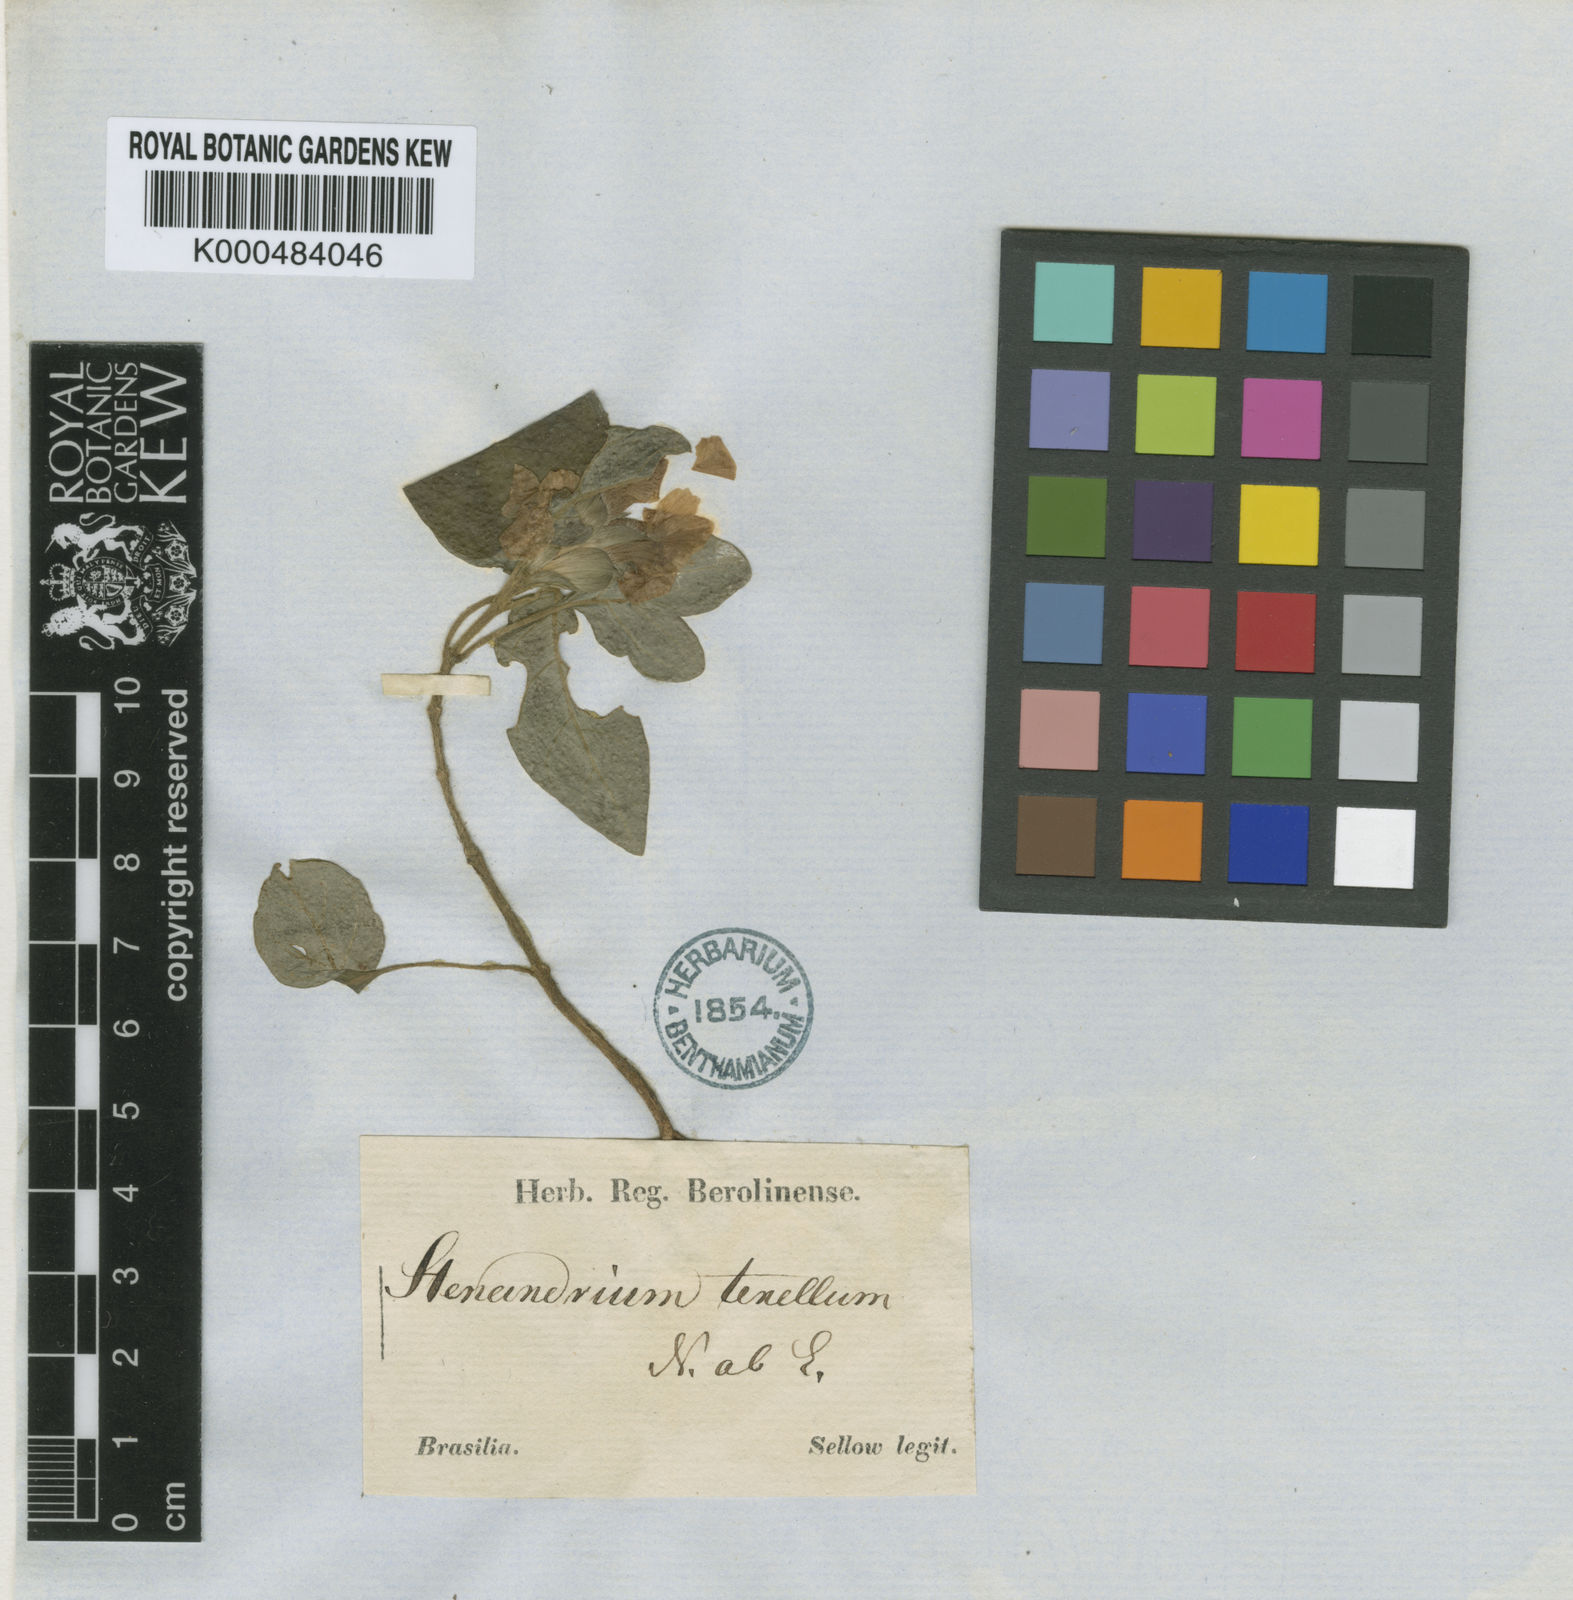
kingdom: Plantae
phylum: Tracheophyta
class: Magnoliopsida
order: Lamiales
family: Acanthaceae
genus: Stenandrium
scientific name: Stenandrium tenellum
